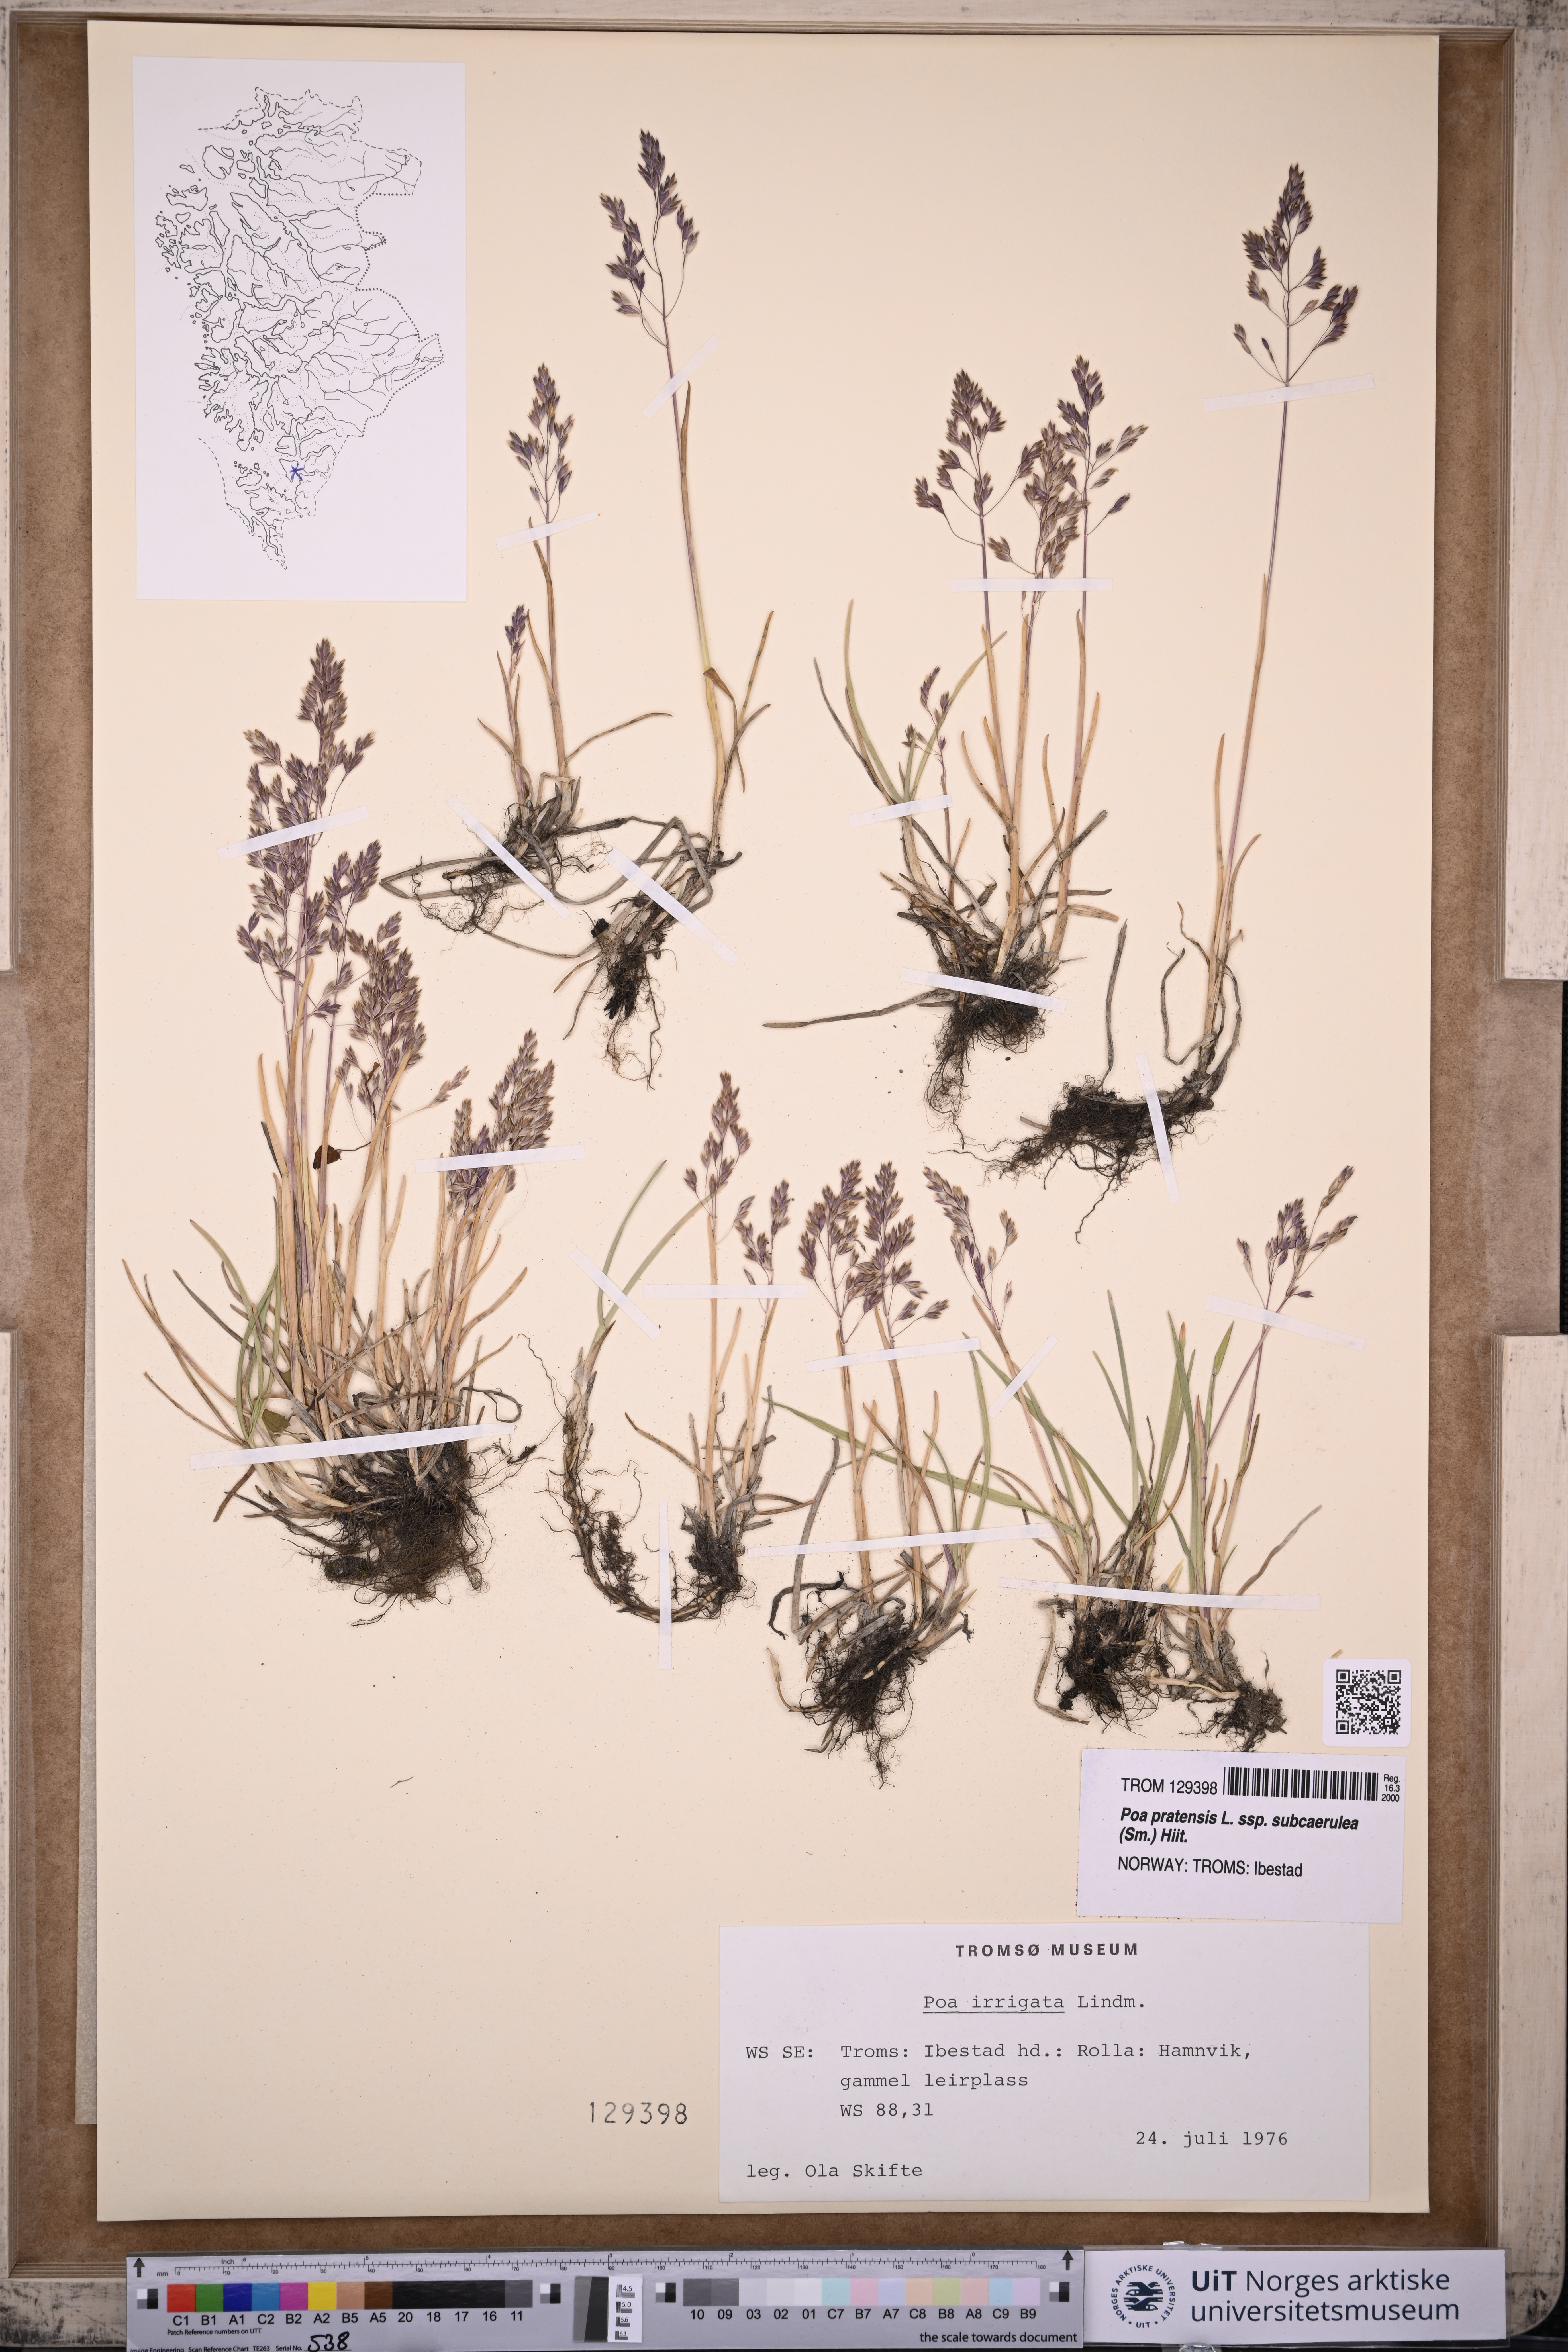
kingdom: Plantae
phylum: Tracheophyta
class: Liliopsida
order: Poales
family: Poaceae
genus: Poa
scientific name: Poa humilis
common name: Spreading meadow-grass
